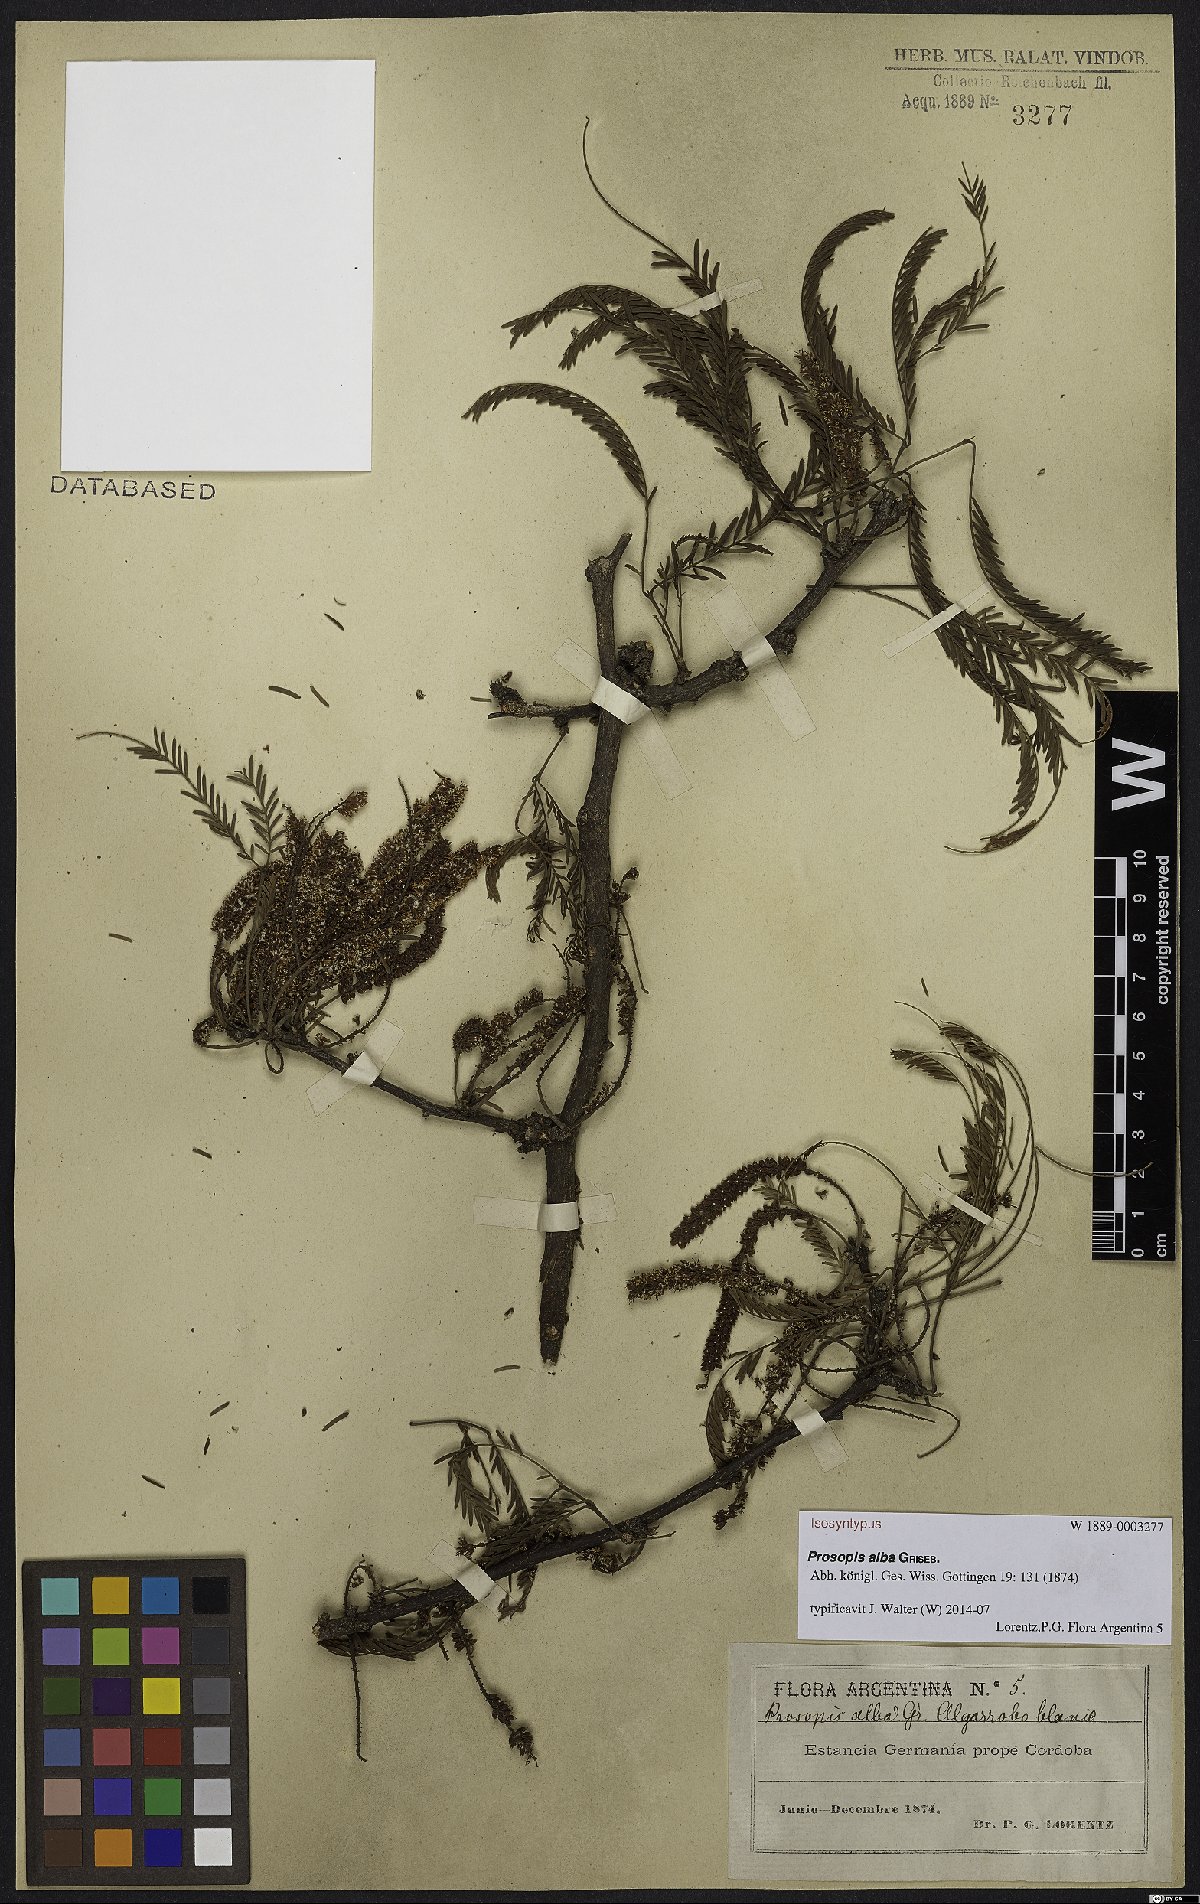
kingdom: Plantae
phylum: Tracheophyta
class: Magnoliopsida
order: Fabales
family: Fabaceae
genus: Prosopis
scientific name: Prosopis alba
